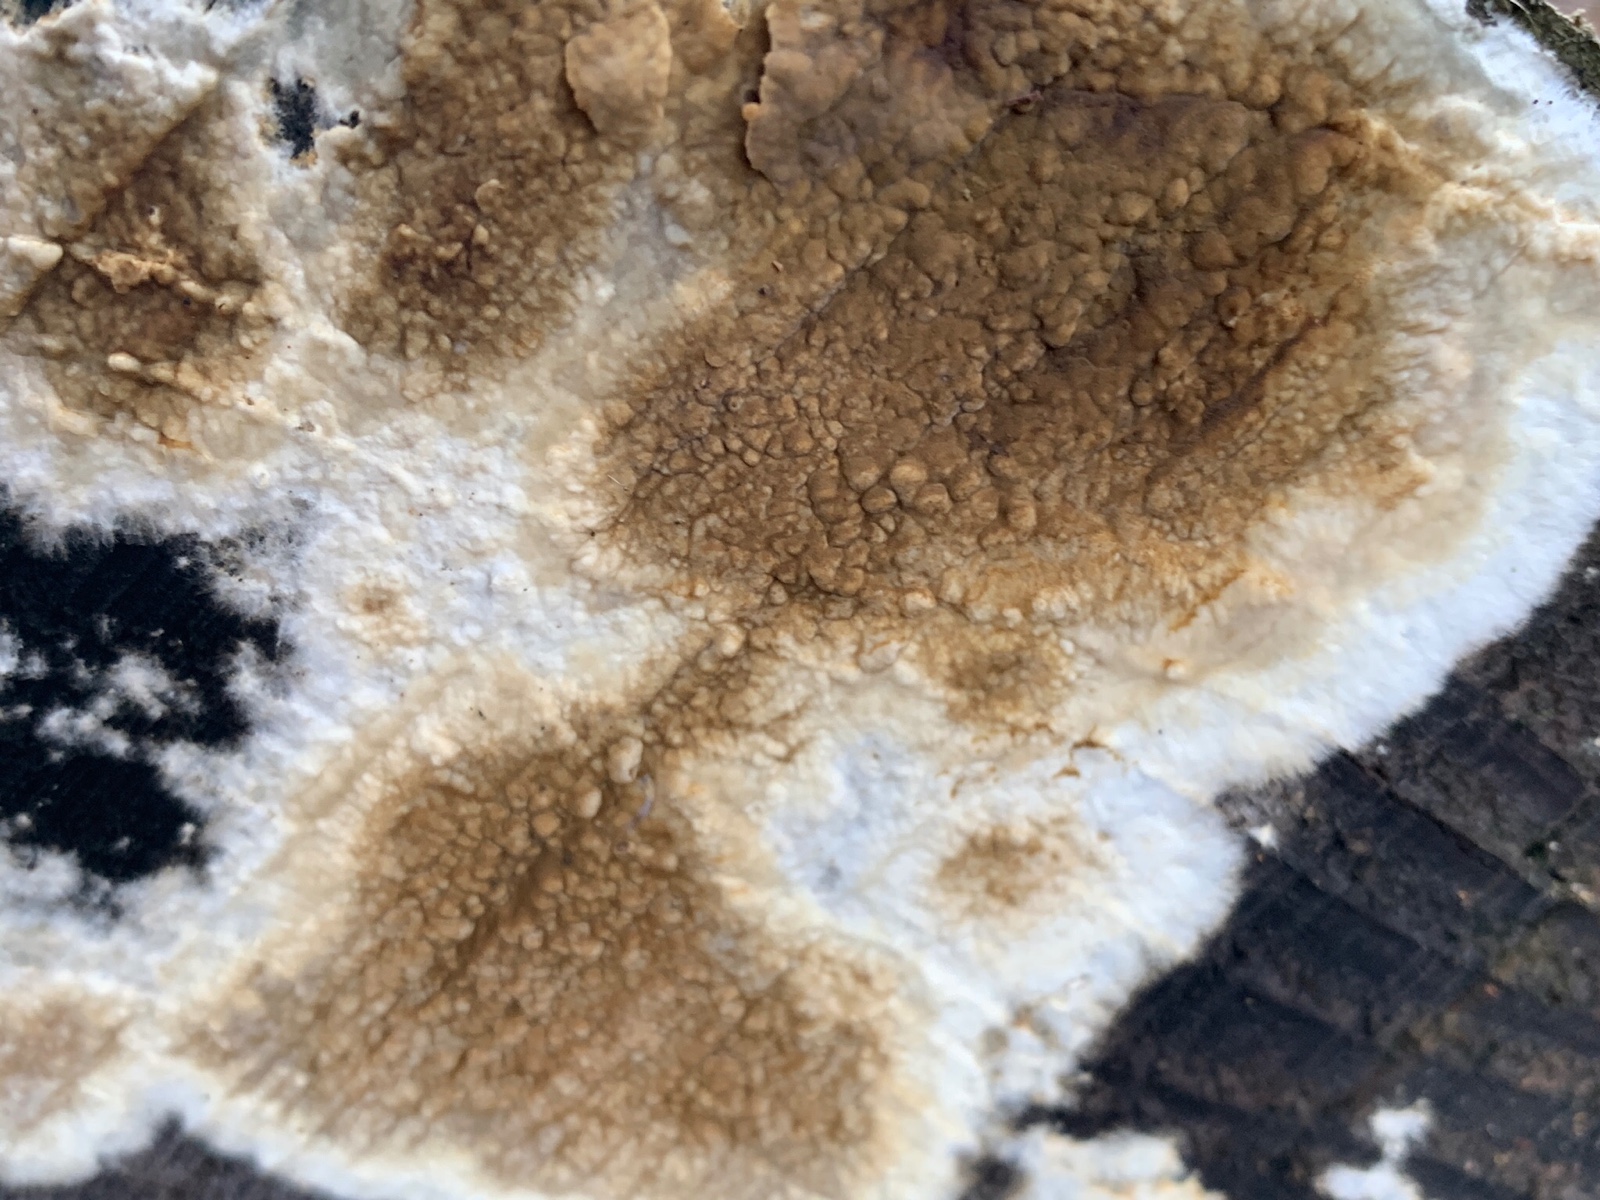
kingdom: Fungi
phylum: Basidiomycota
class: Agaricomycetes
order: Boletales
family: Coniophoraceae
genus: Coniophora
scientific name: Coniophora puteana
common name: gul tømmersvamp
